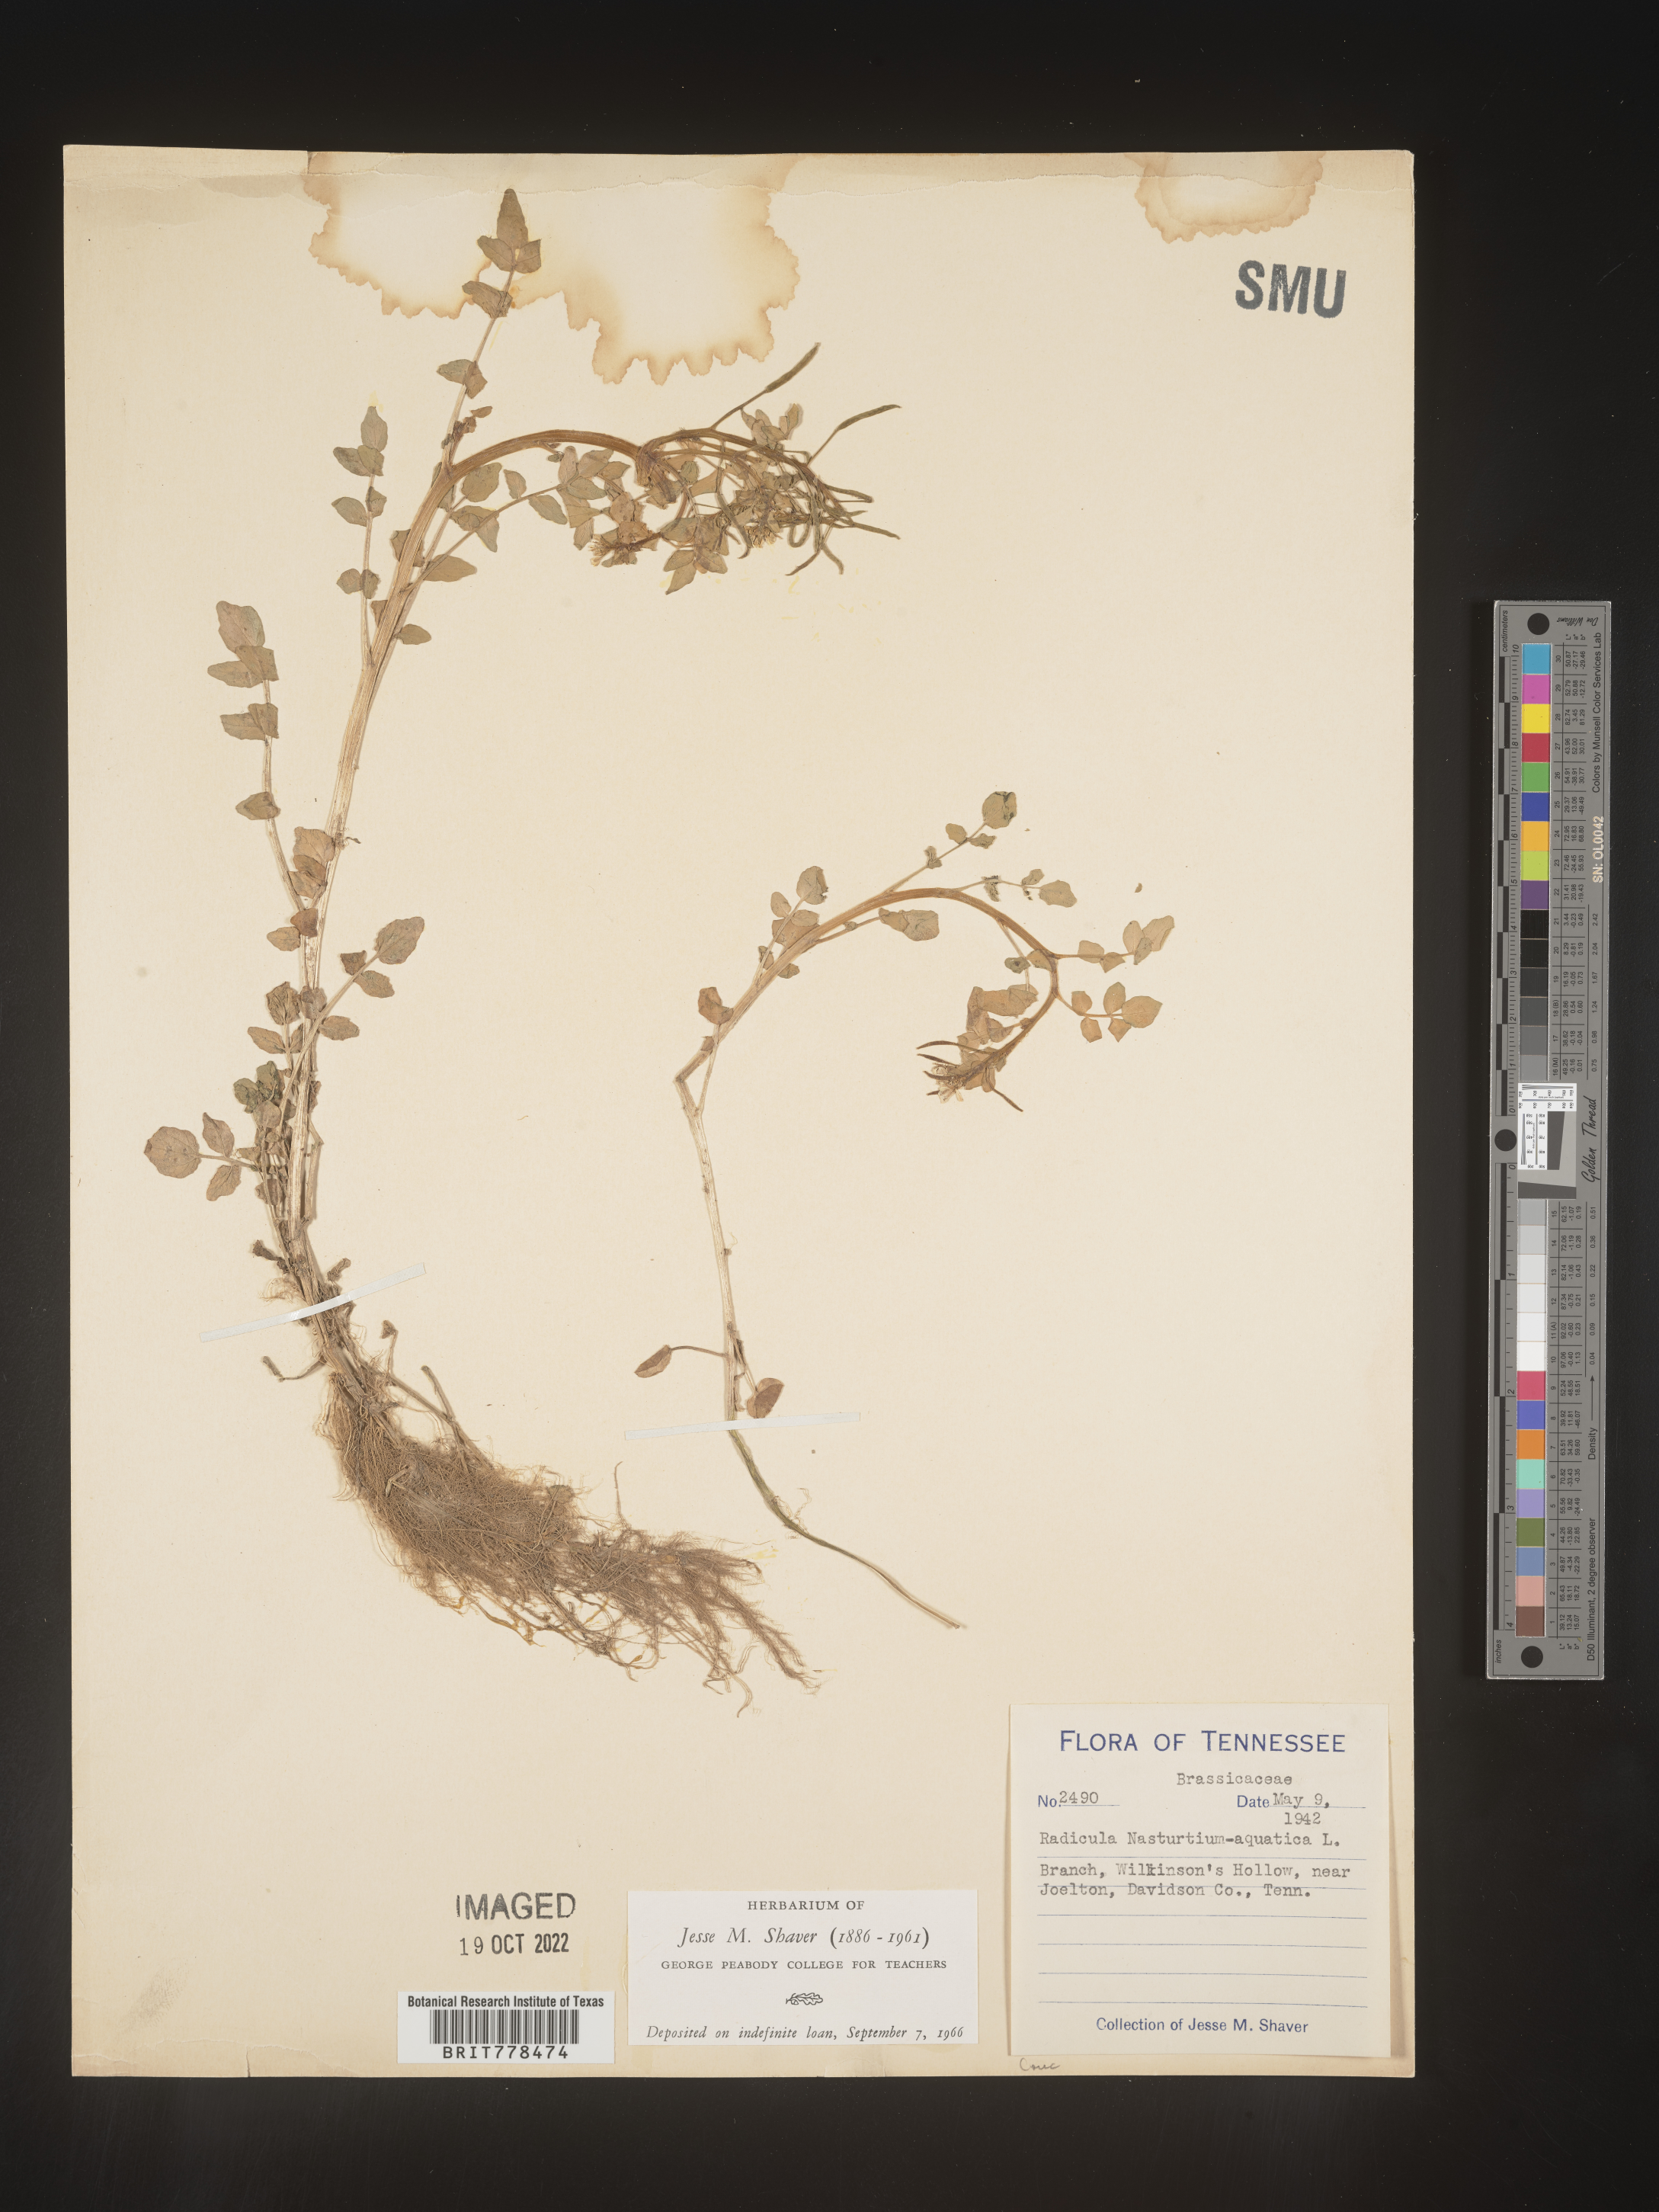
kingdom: Plantae
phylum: Tracheophyta
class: Magnoliopsida
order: Brassicales
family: Brassicaceae
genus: Nasturtium
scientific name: Nasturtium officinale
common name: Watercress
